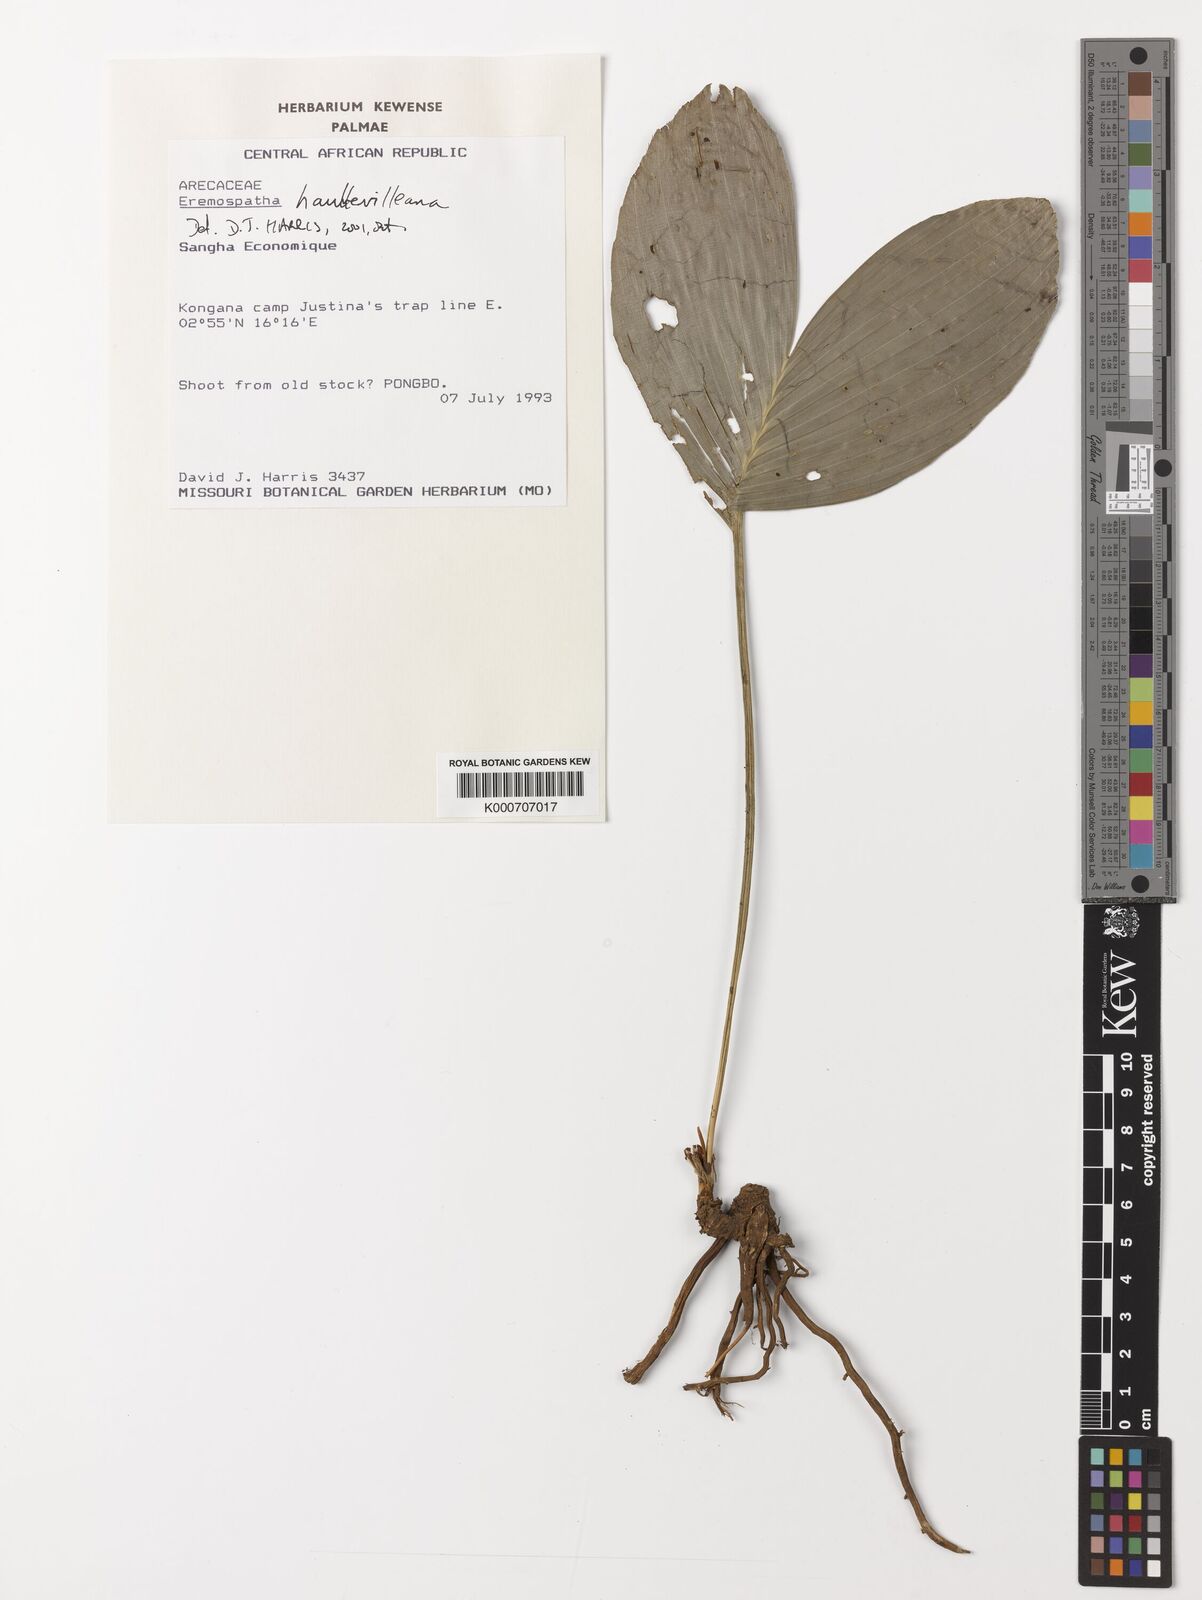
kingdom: Plantae
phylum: Tracheophyta
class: Liliopsida
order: Arecales
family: Arecaceae
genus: Eremospatha
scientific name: Eremospatha haullevilleana
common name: Rattan
